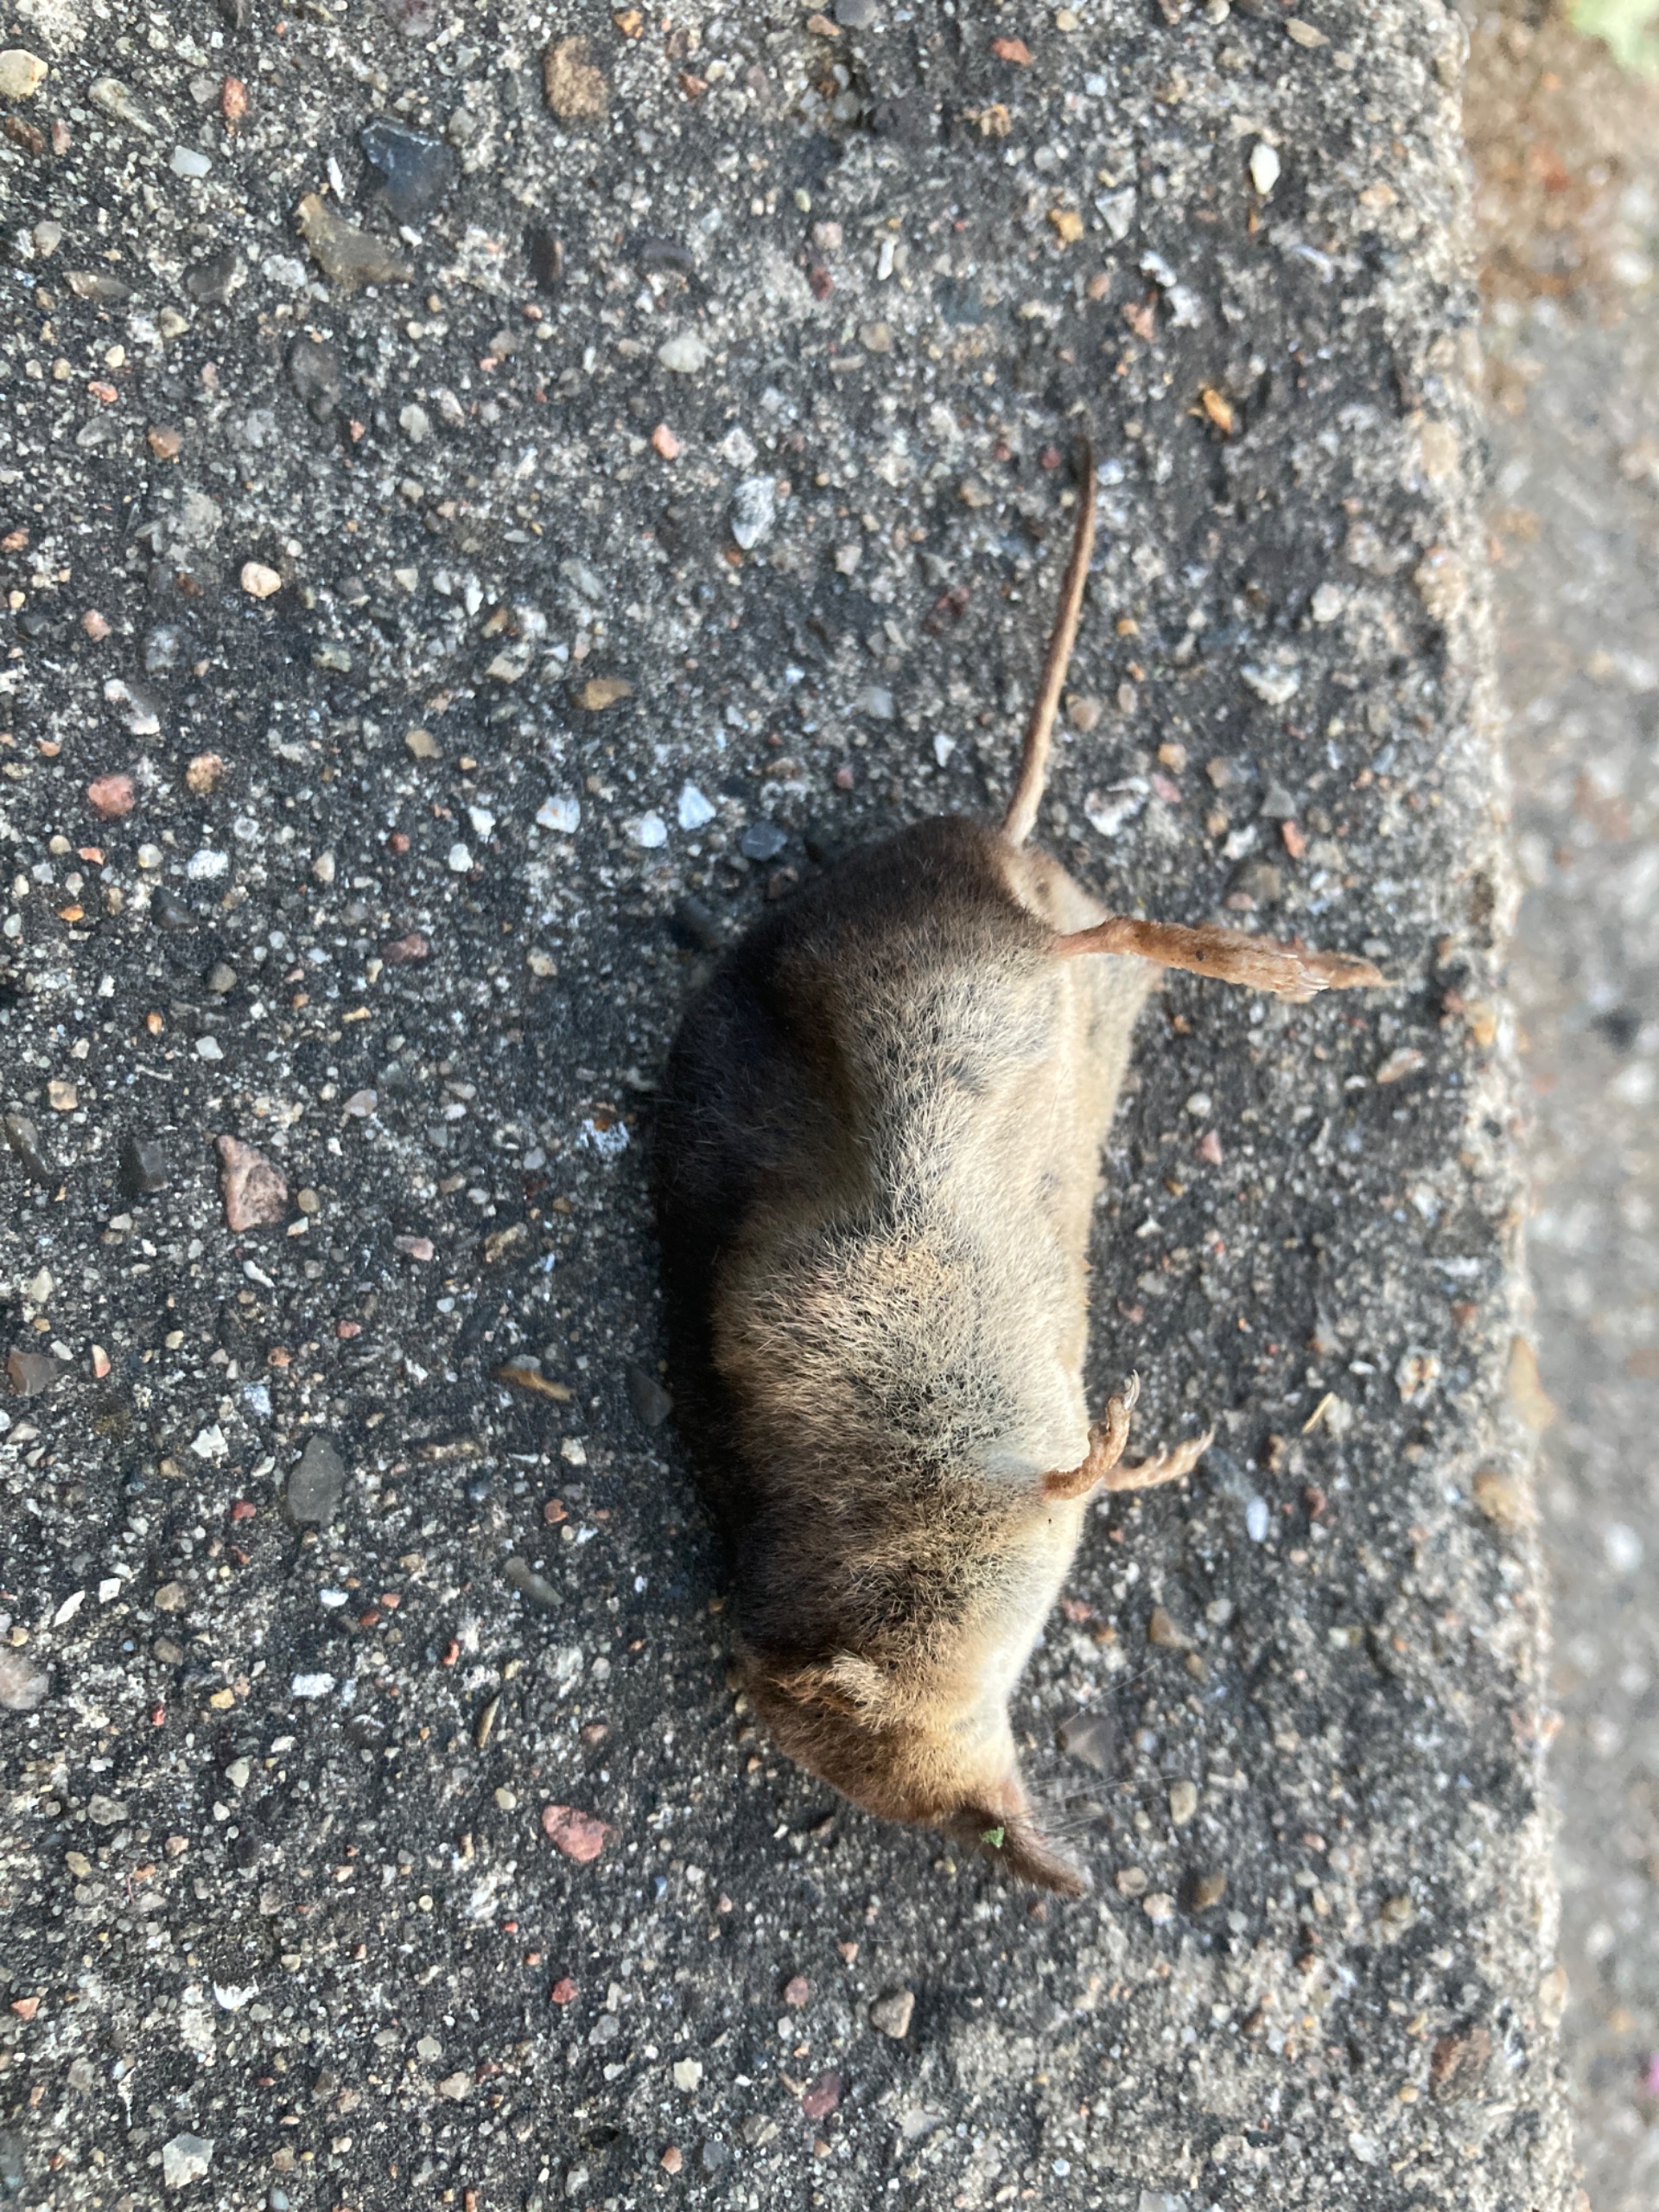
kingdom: Animalia
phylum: Chordata
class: Mammalia
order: Soricomorpha
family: Soricidae
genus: Sorex
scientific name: Sorex araneus
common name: Almindelig spidsmus
